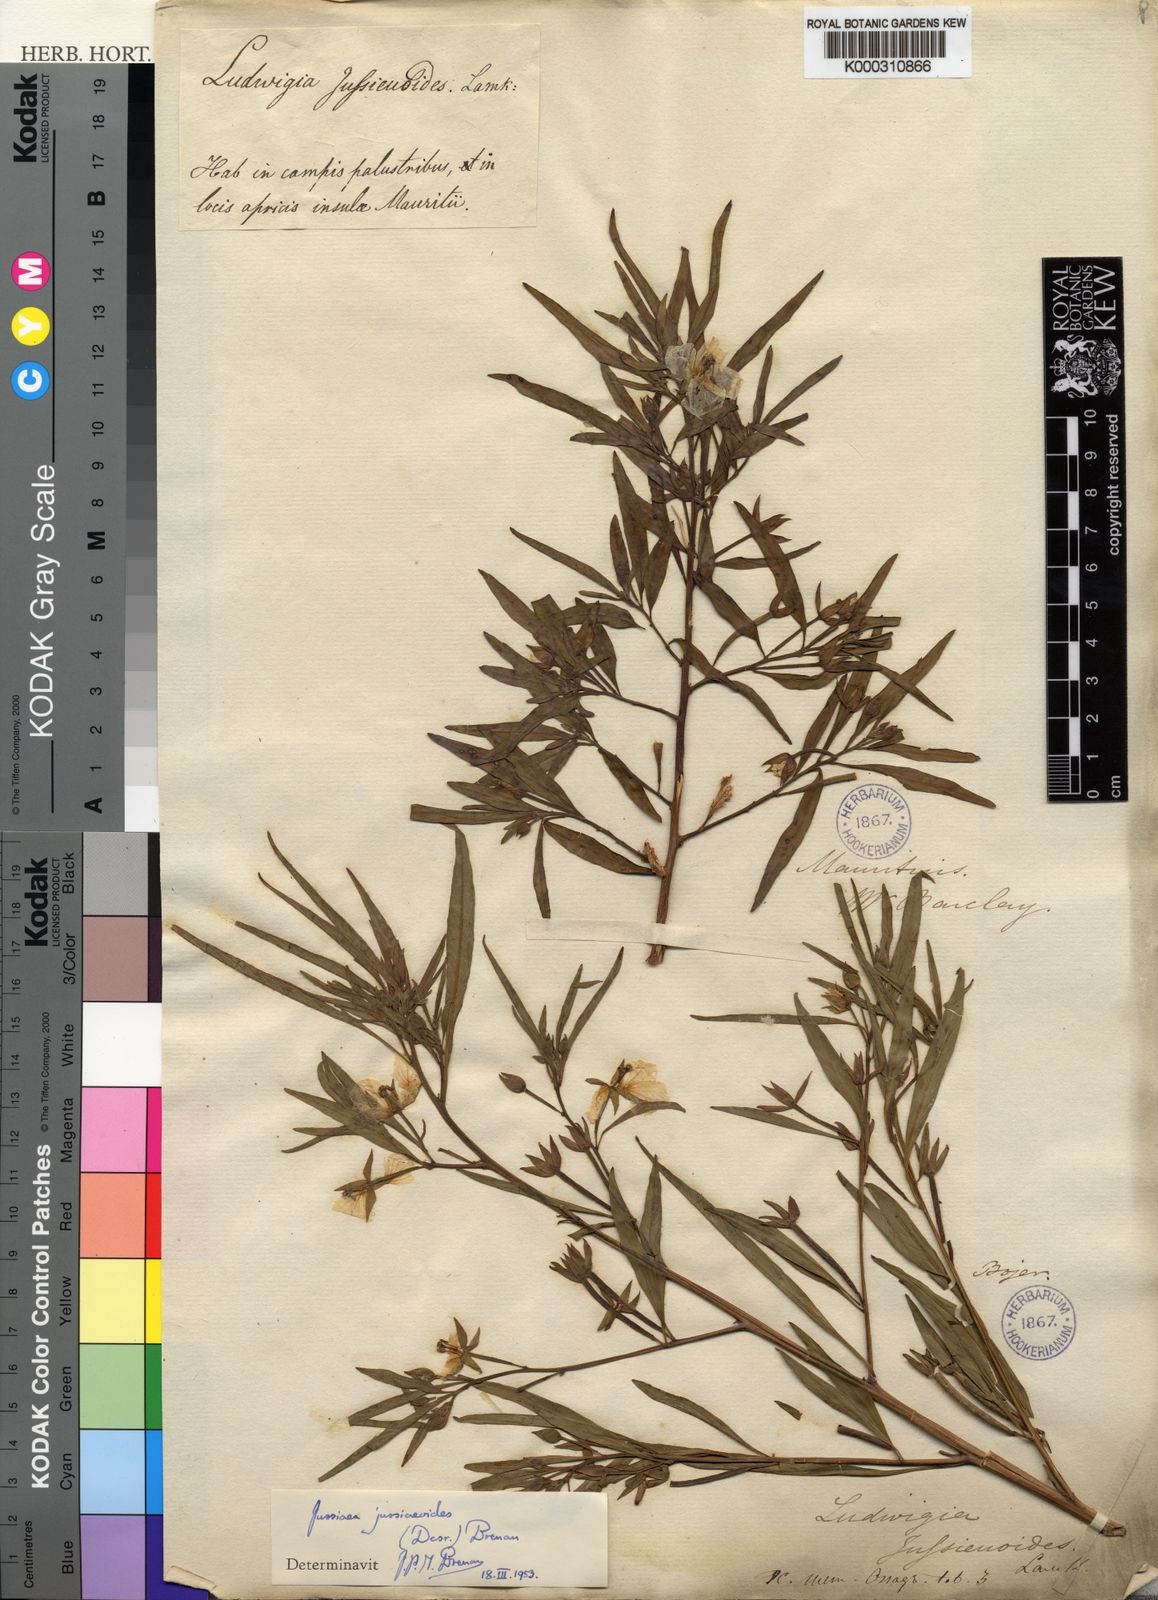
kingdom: Plantae
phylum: Tracheophyta
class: Magnoliopsida
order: Myrtales
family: Onagraceae
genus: Ludwigia
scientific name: Ludwigia jussiaeoides
